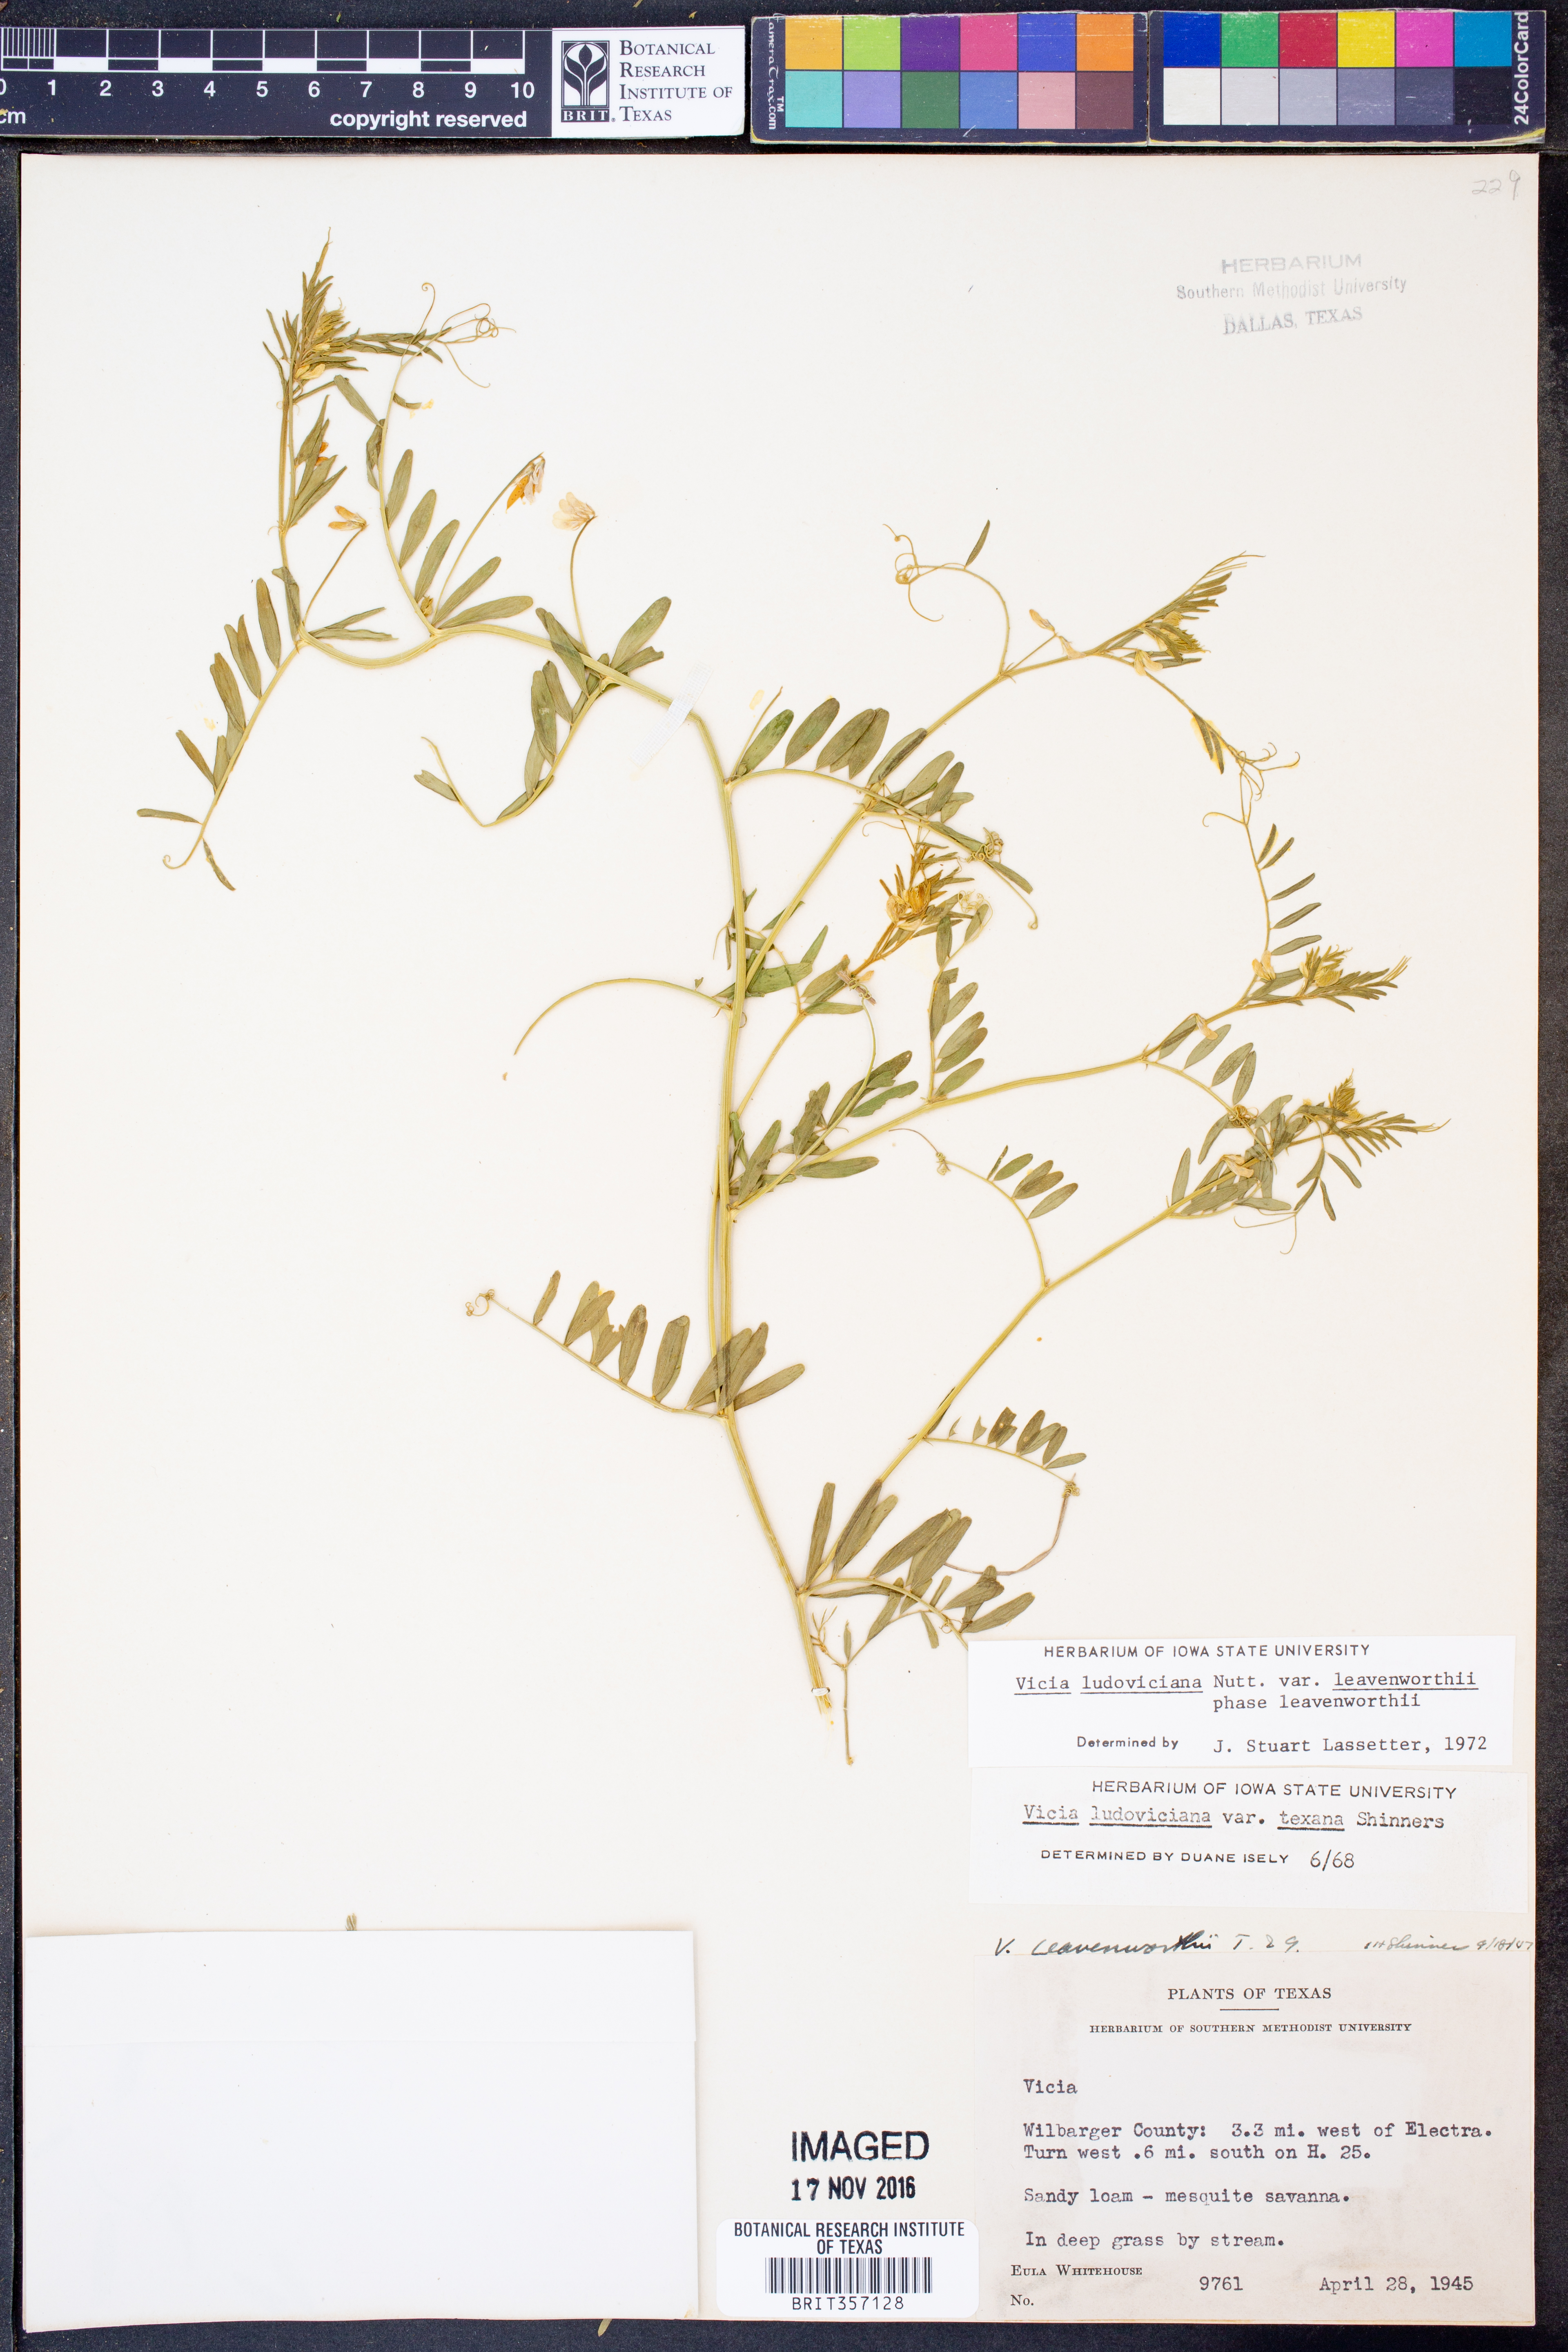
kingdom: Plantae
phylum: Tracheophyta
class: Magnoliopsida
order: Fabales
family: Fabaceae
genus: Vicia
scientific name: Vicia ludoviciana
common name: Louisiana vetch
